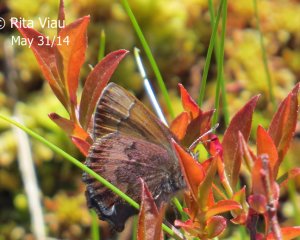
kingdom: Animalia
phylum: Arthropoda
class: Insecta
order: Lepidoptera
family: Lycaenidae
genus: Incisalia
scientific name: Incisalia irioides
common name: Brown Elfin
